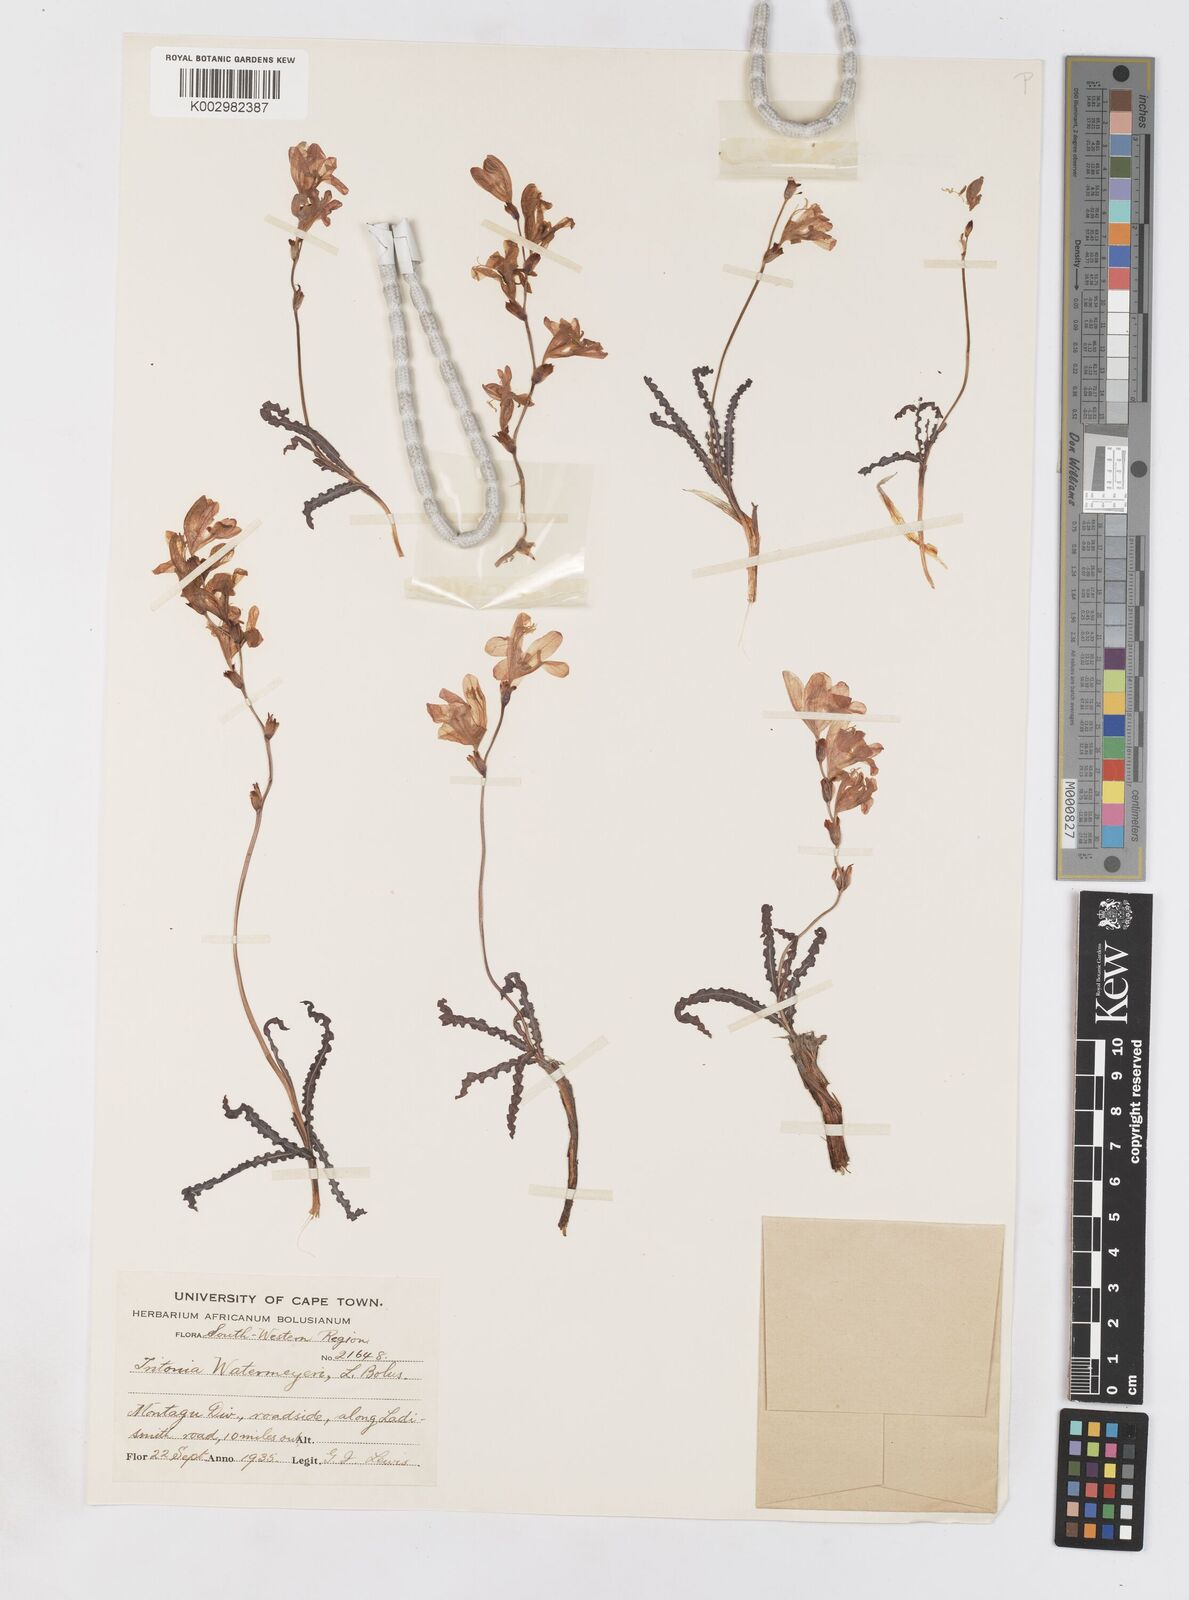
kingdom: Plantae
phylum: Tracheophyta
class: Liliopsida
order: Asparagales
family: Iridaceae
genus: Tritonia
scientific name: Tritonia watermeyeri
